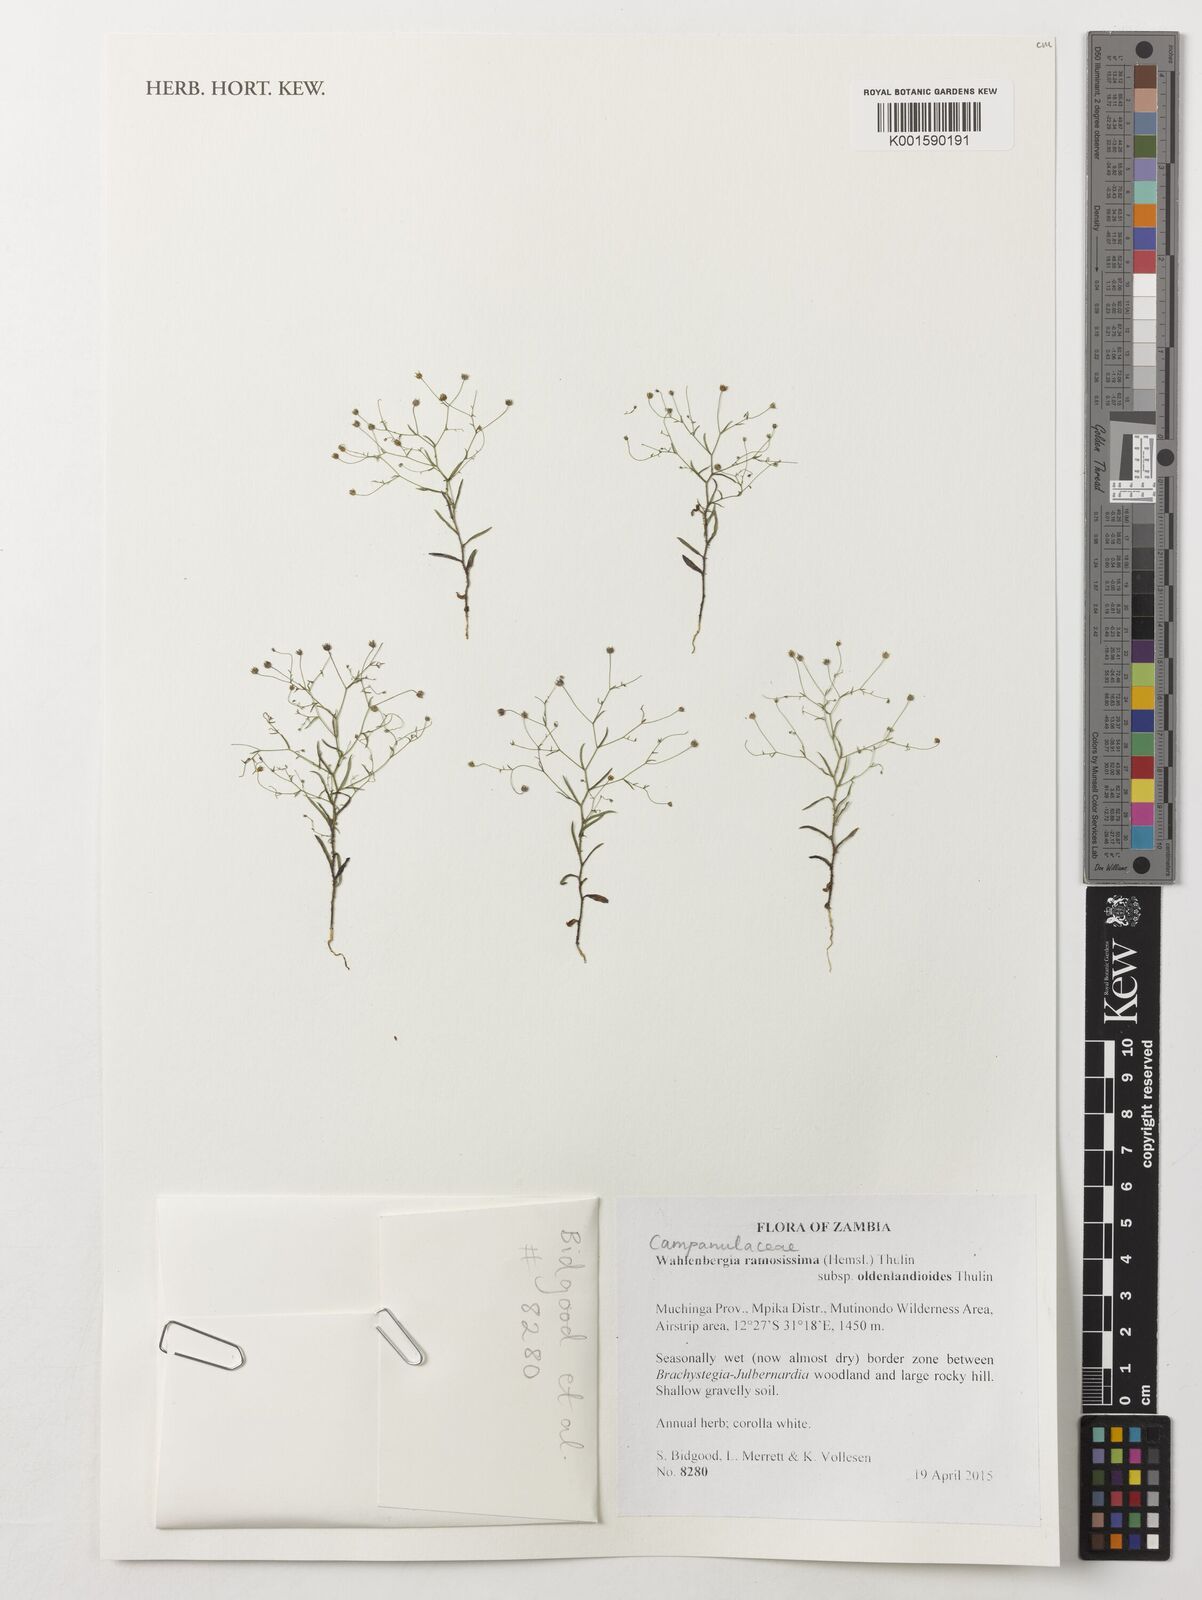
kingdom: Plantae
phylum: Tracheophyta
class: Magnoliopsida
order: Asterales
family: Campanulaceae
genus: Wahlenbergia
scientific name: Wahlenbergia ramosissima
